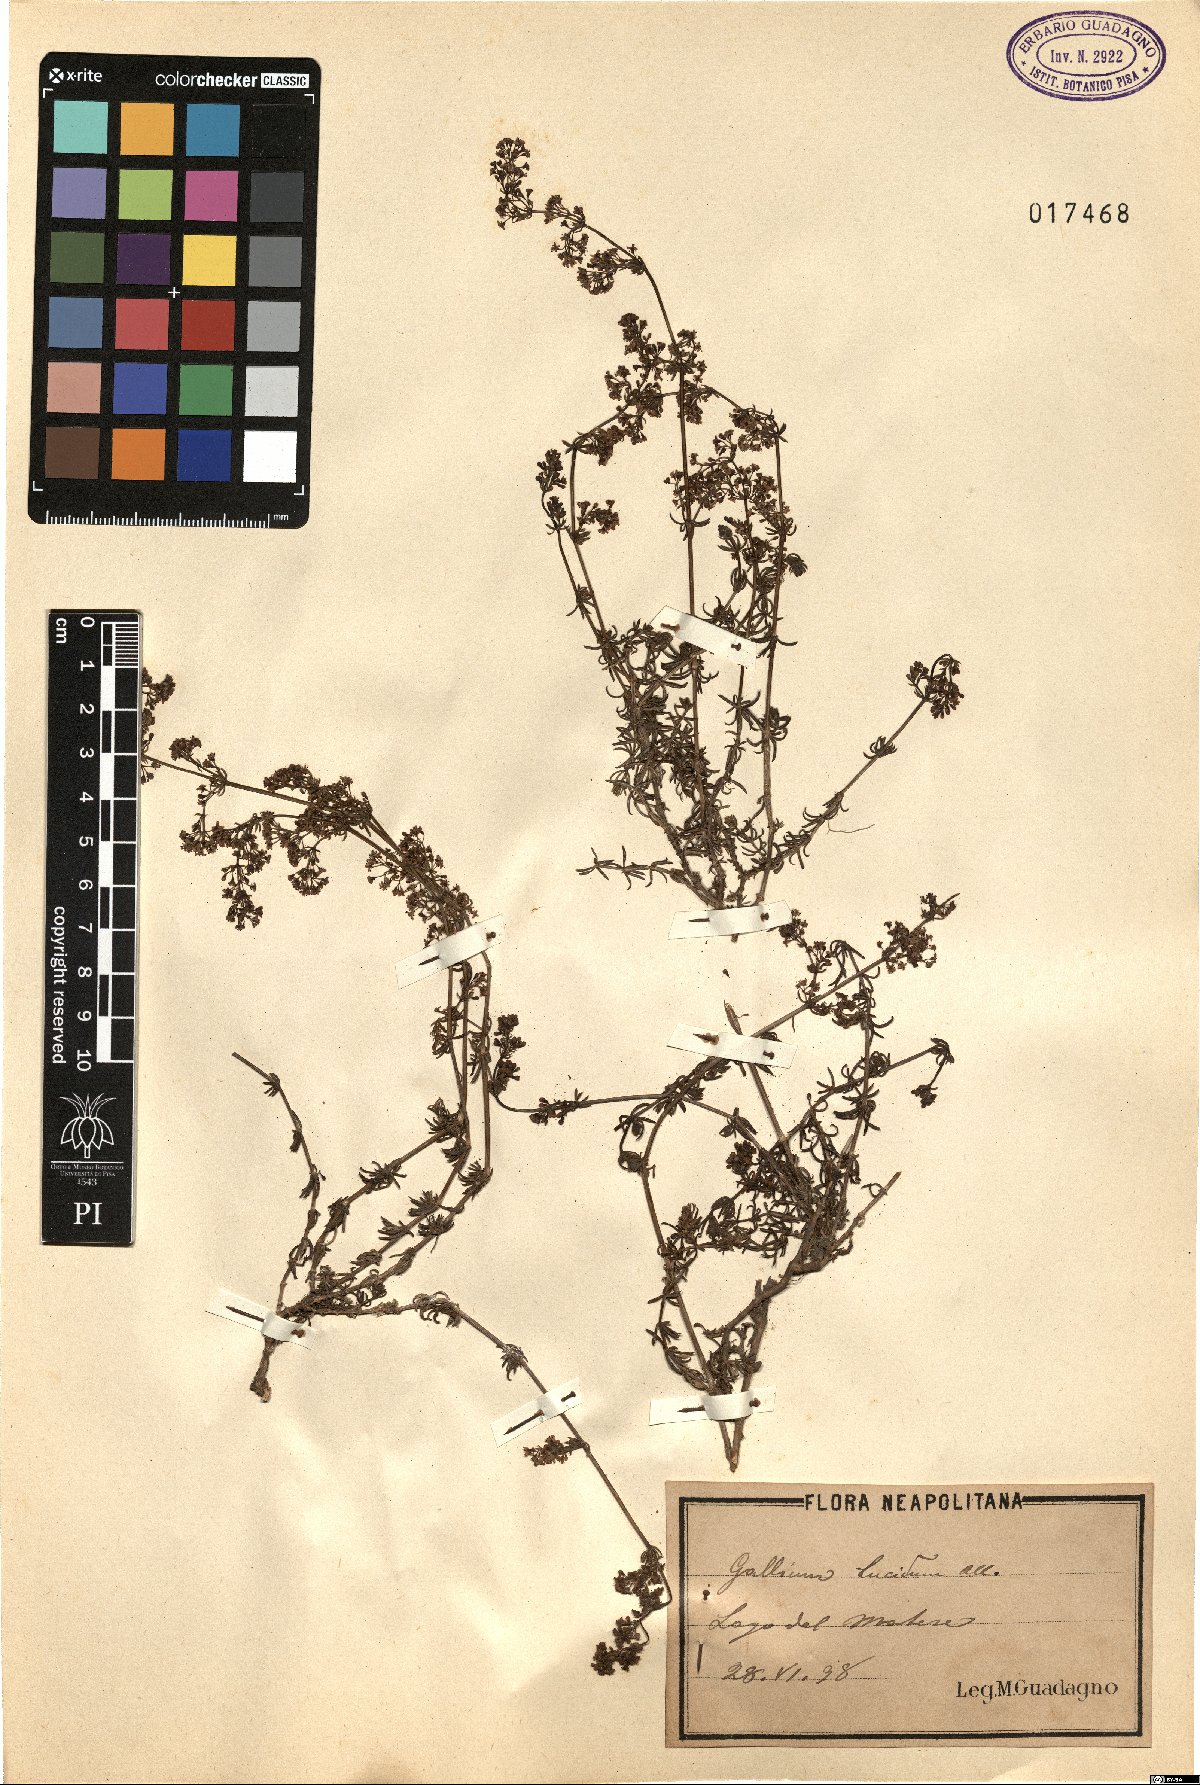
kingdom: Plantae
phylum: Tracheophyta
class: Magnoliopsida
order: Gentianales
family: Rubiaceae
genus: Galium
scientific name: Galium lucidum
